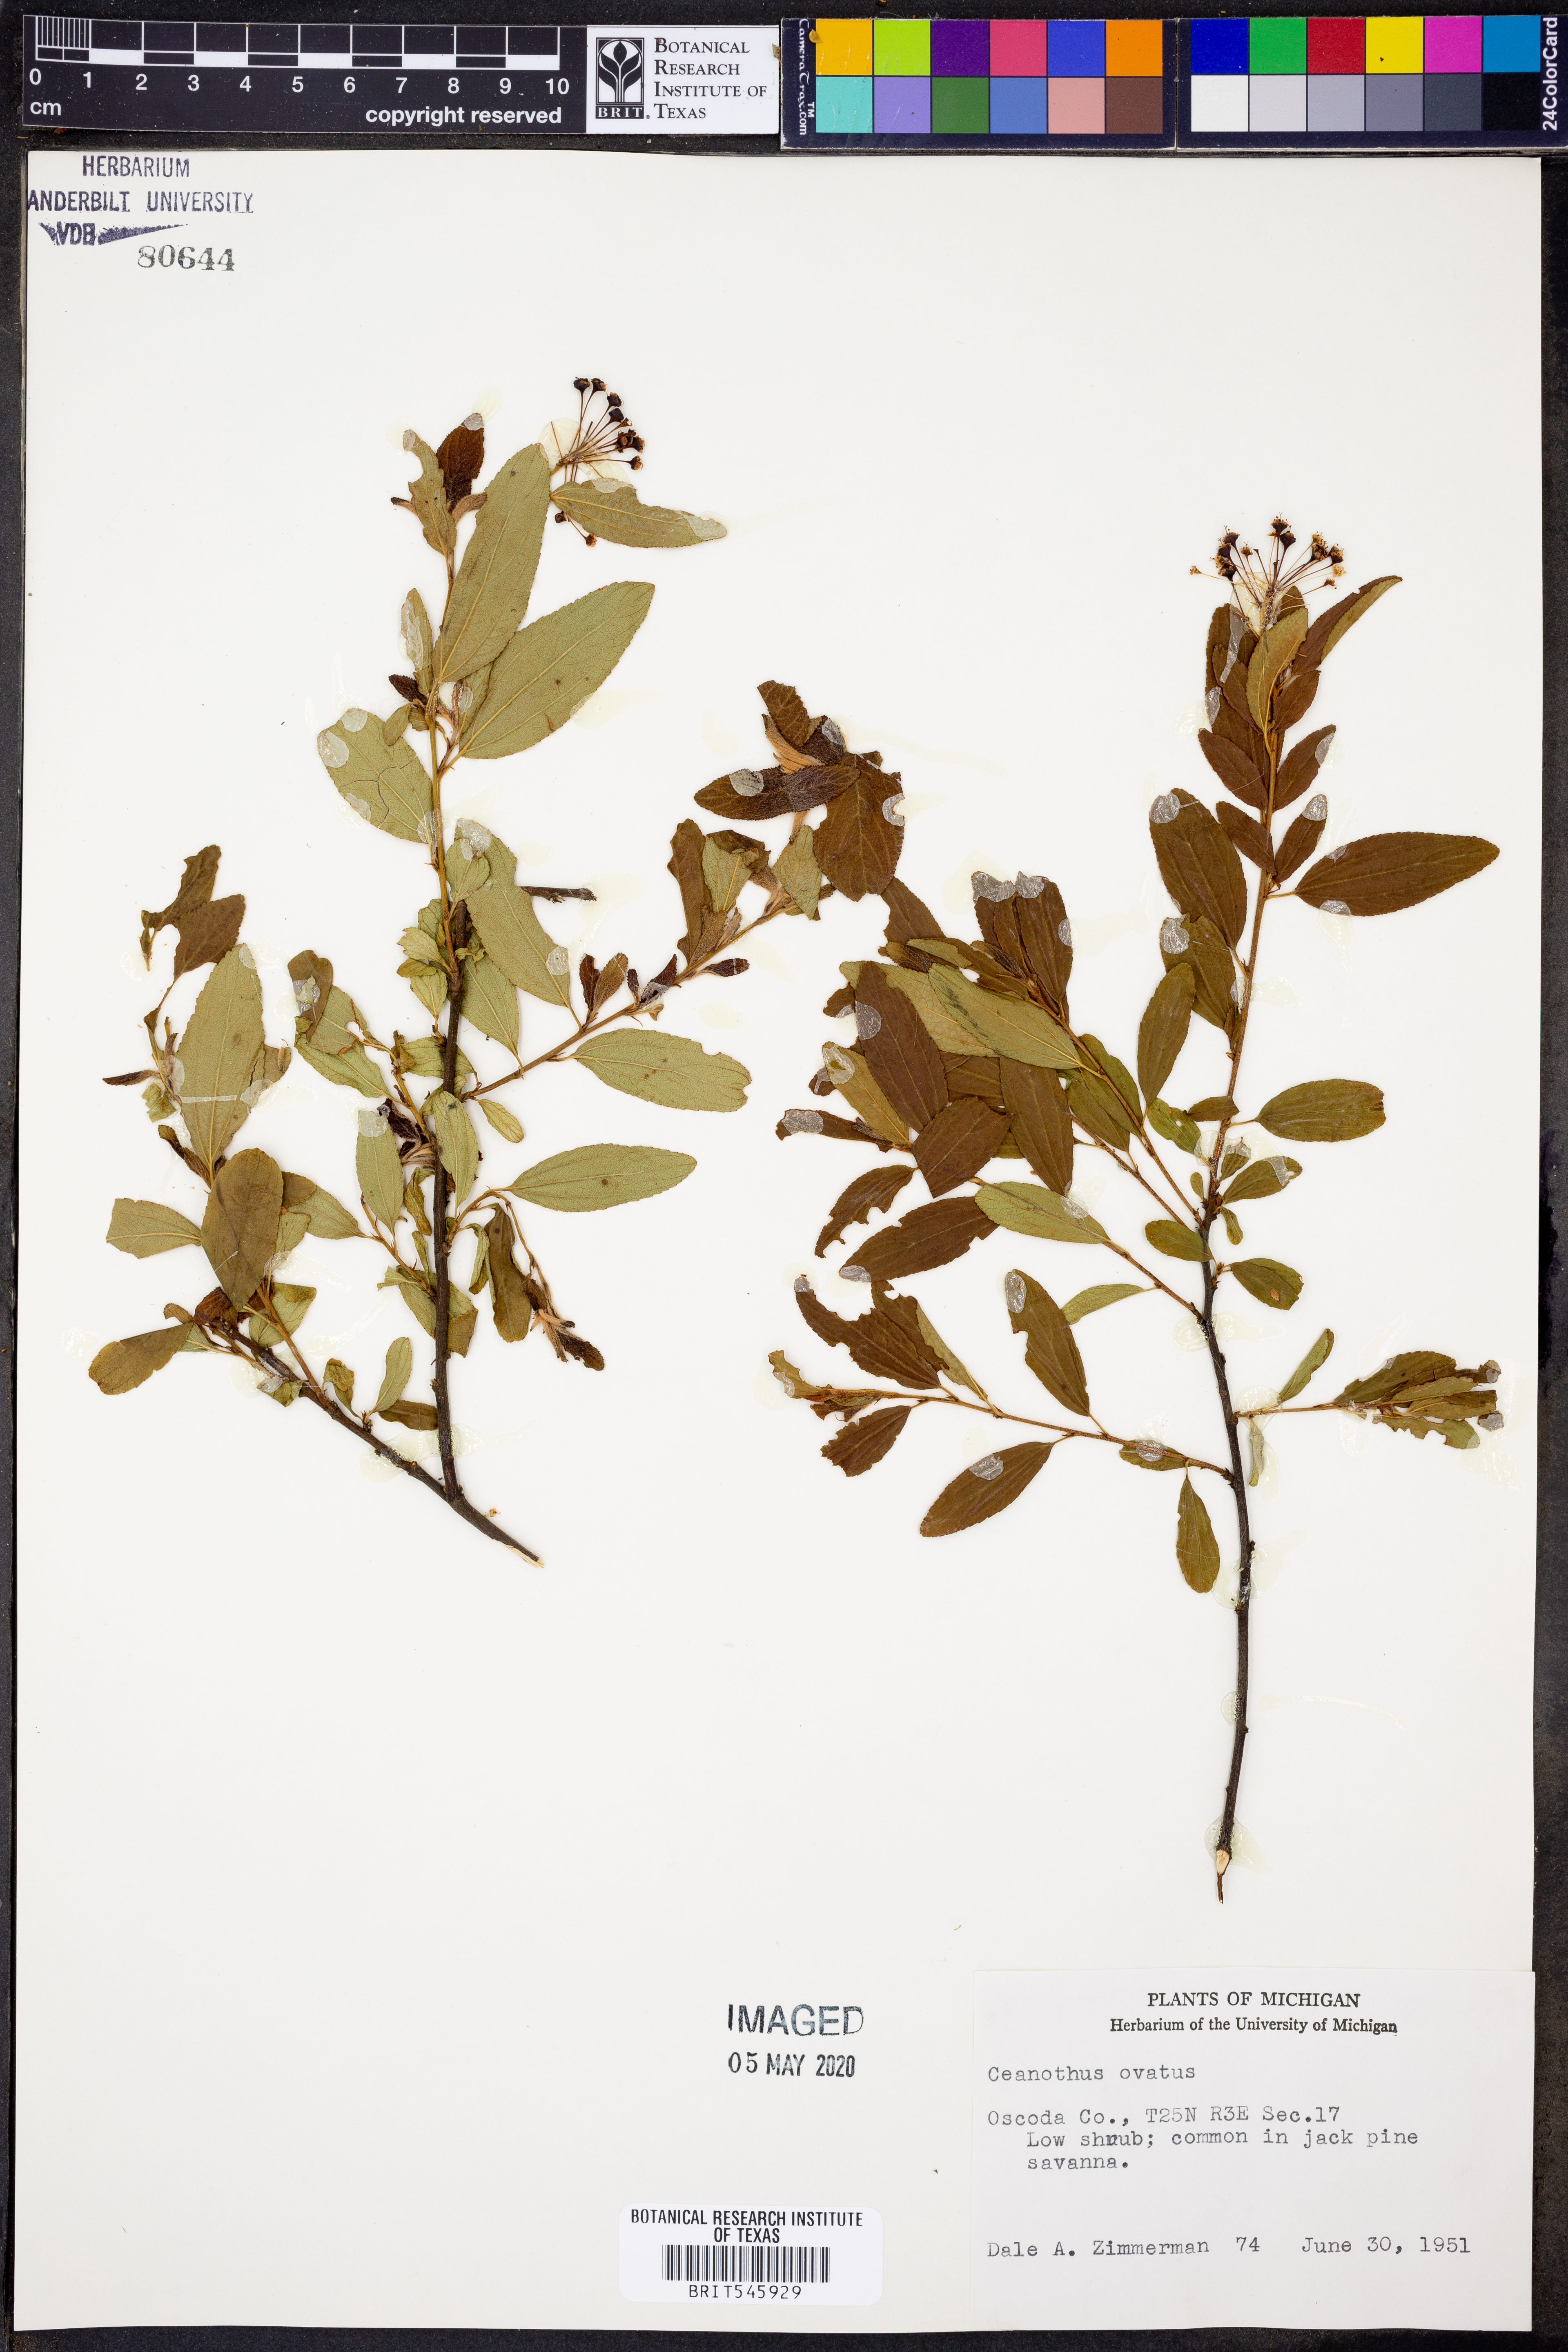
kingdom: Plantae
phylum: Tracheophyta
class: Magnoliopsida
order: Rosales
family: Rhamnaceae
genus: Ceanothus
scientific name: Ceanothus herbaceus
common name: Inland ceanothus
